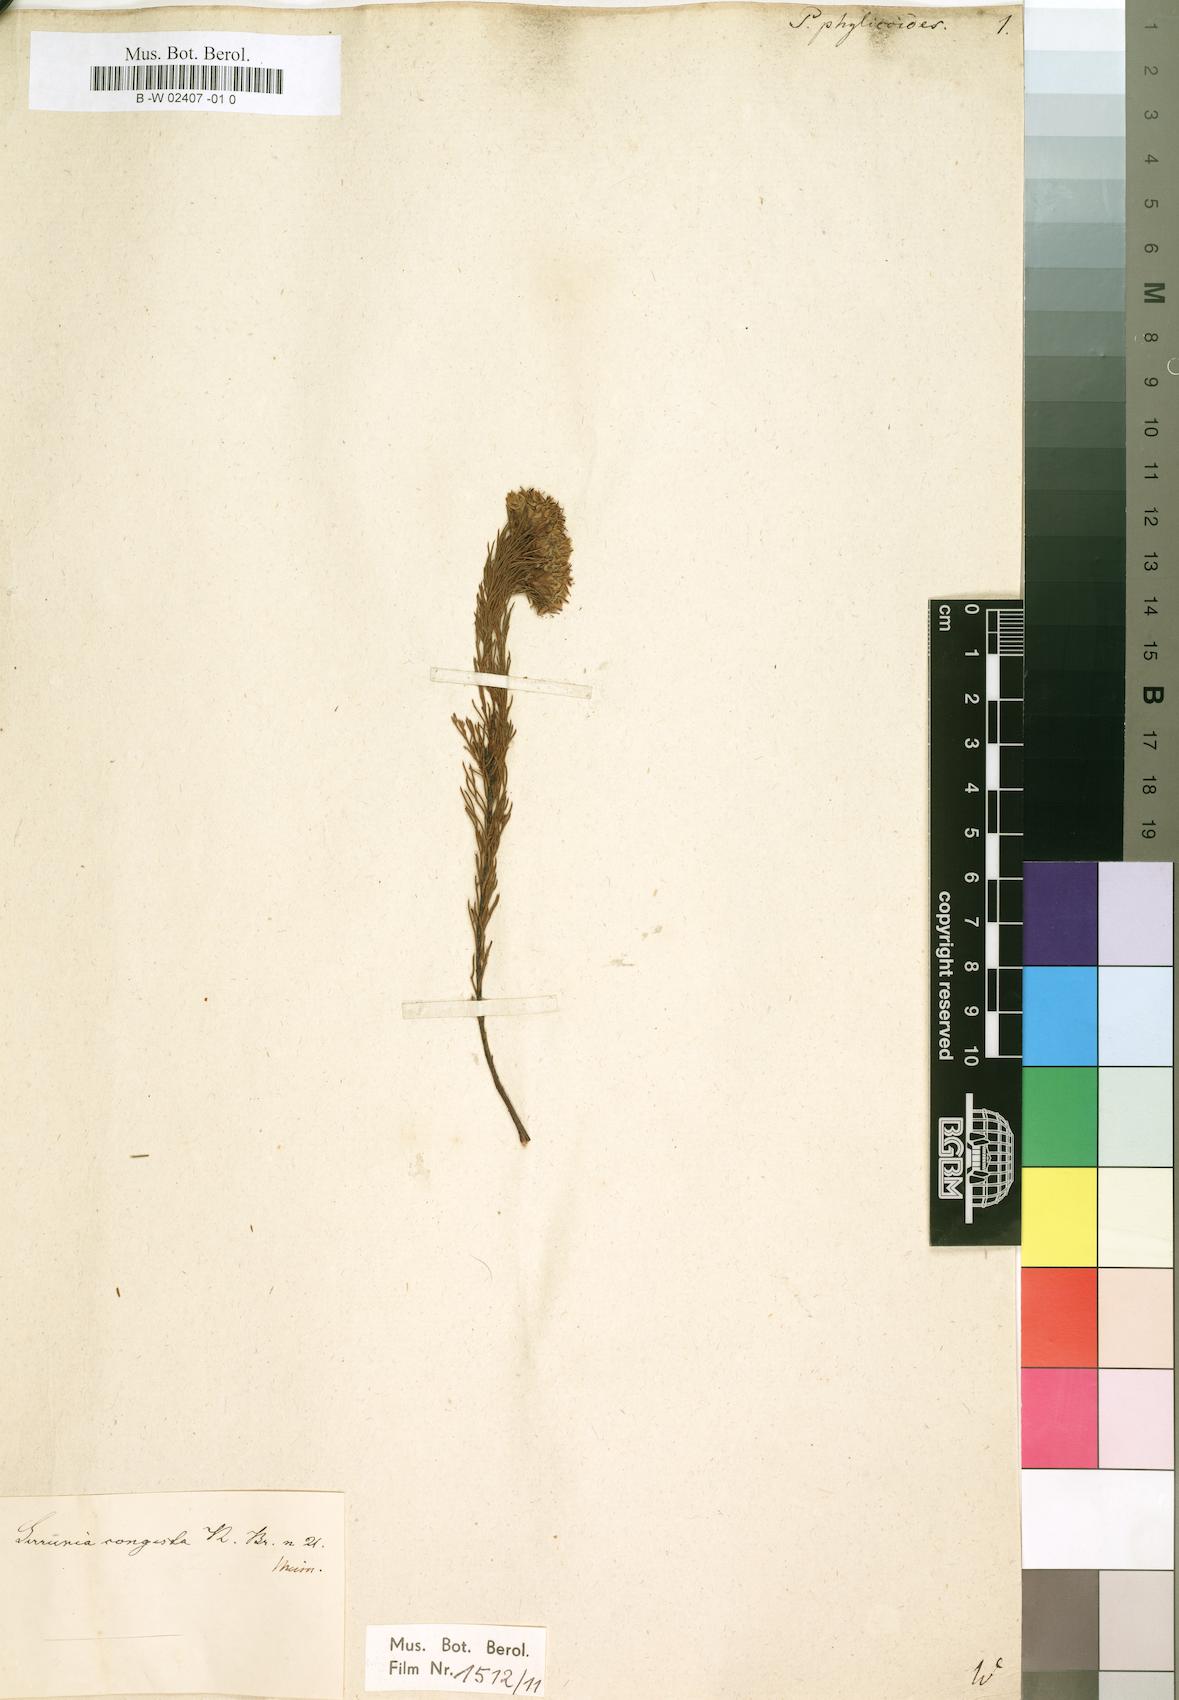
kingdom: Plantae
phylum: Tracheophyta
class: Magnoliopsida
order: Proteales
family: Proteaceae
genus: Protea
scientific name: Protea phylicoides
